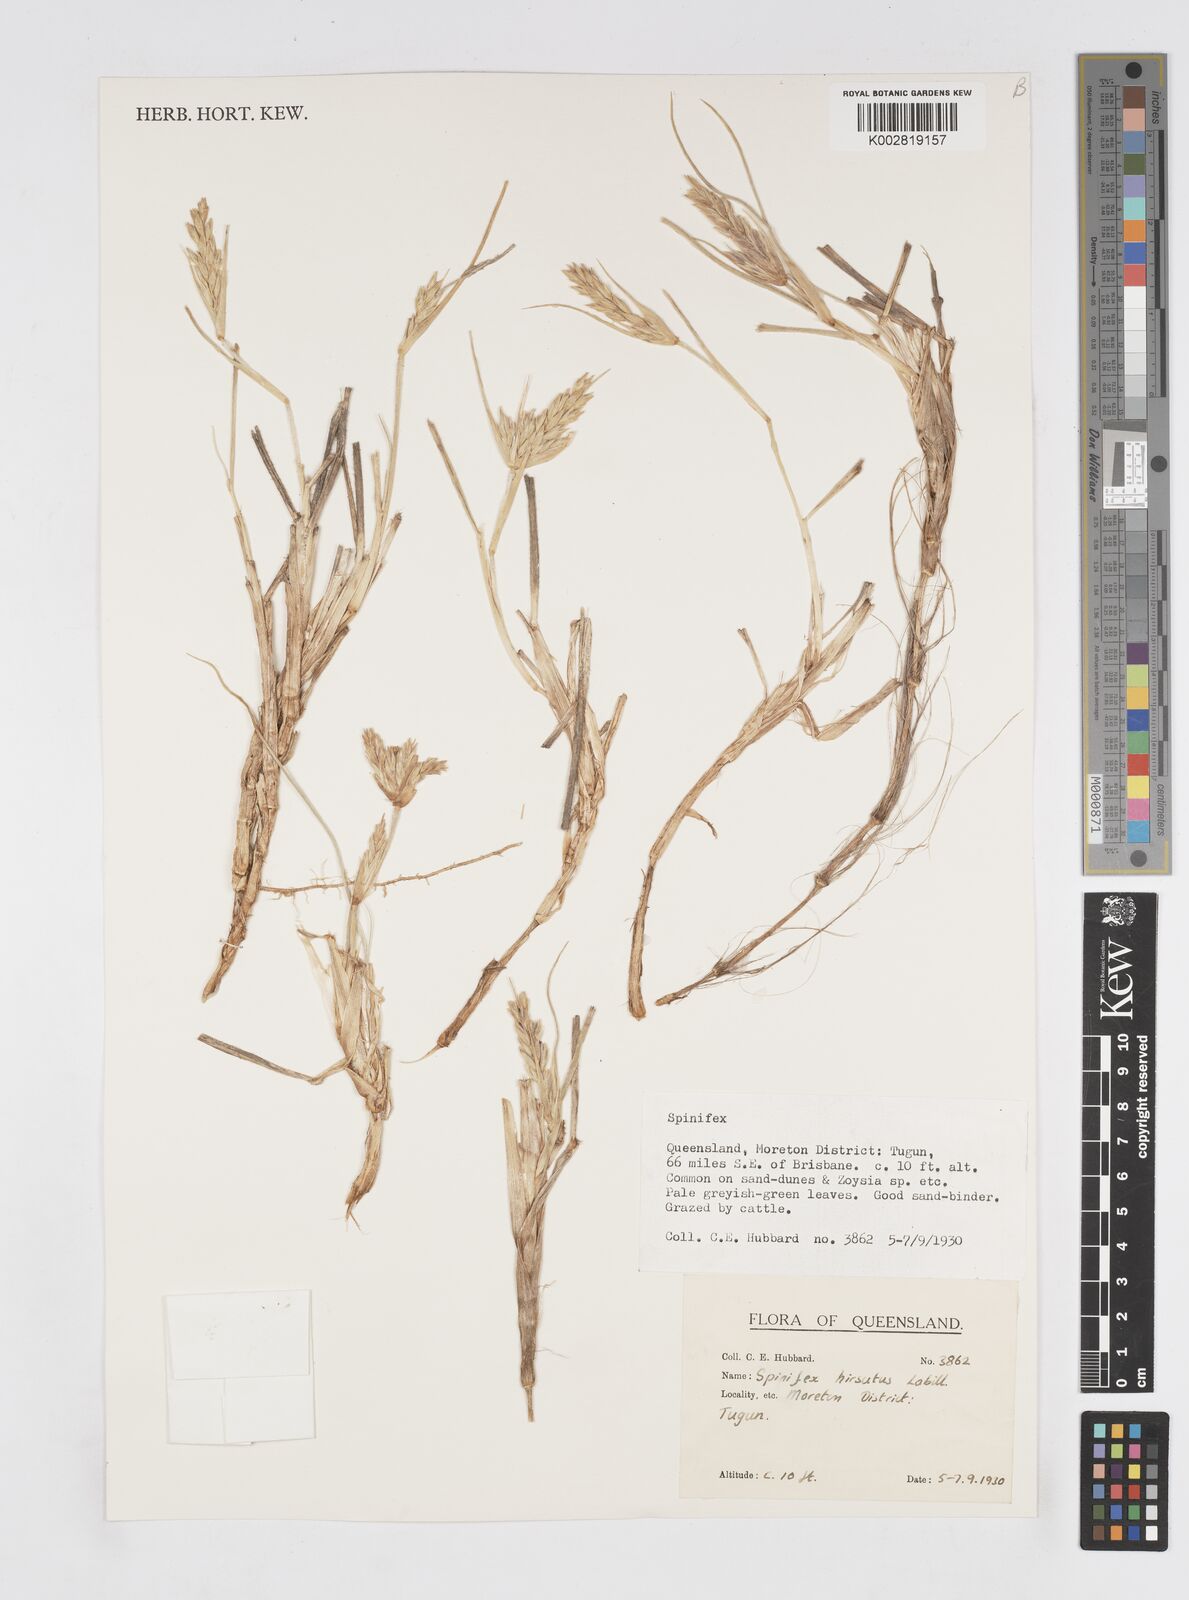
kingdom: Plantae
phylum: Tracheophyta
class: Liliopsida
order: Poales
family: Poaceae
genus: Spinifex
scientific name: Spinifex hirsutus
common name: Hairy spinifex
